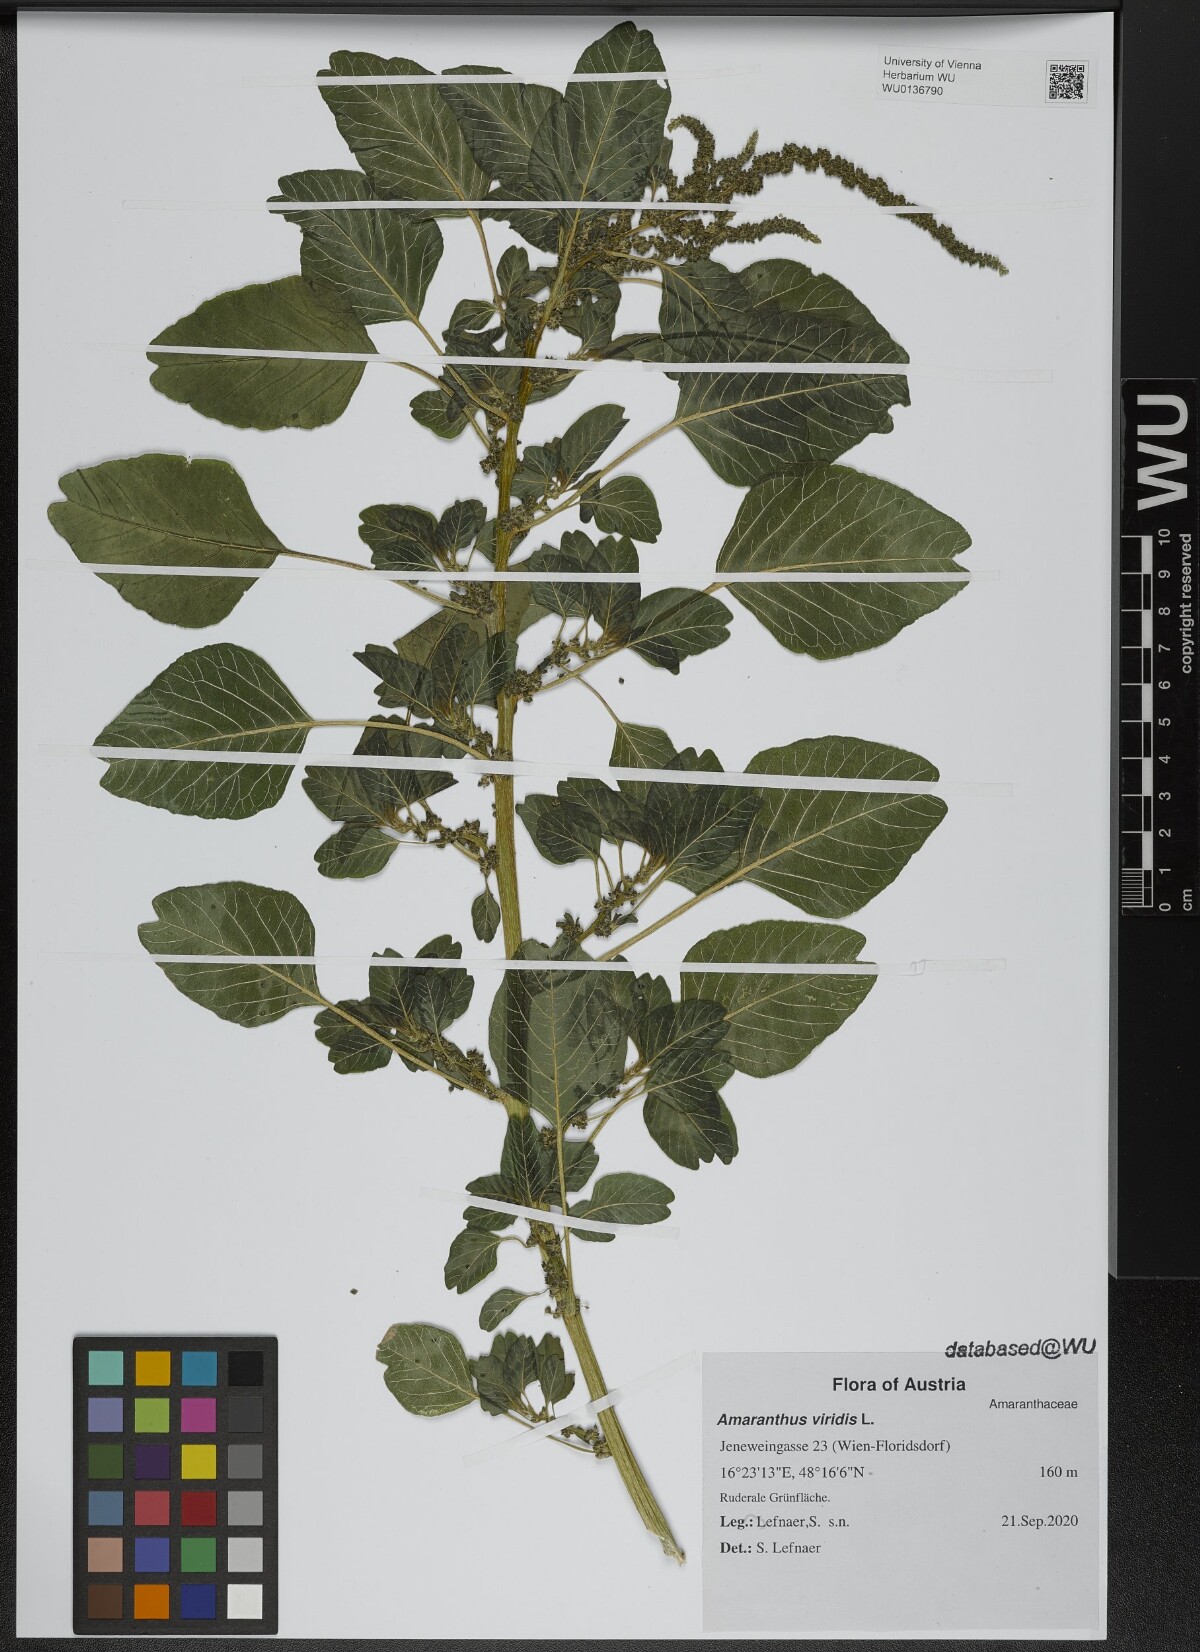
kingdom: Plantae
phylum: Tracheophyta
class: Magnoliopsida
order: Caryophyllales
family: Amaranthaceae
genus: Amaranthus
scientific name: Amaranthus viridis
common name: Slender amaranth
